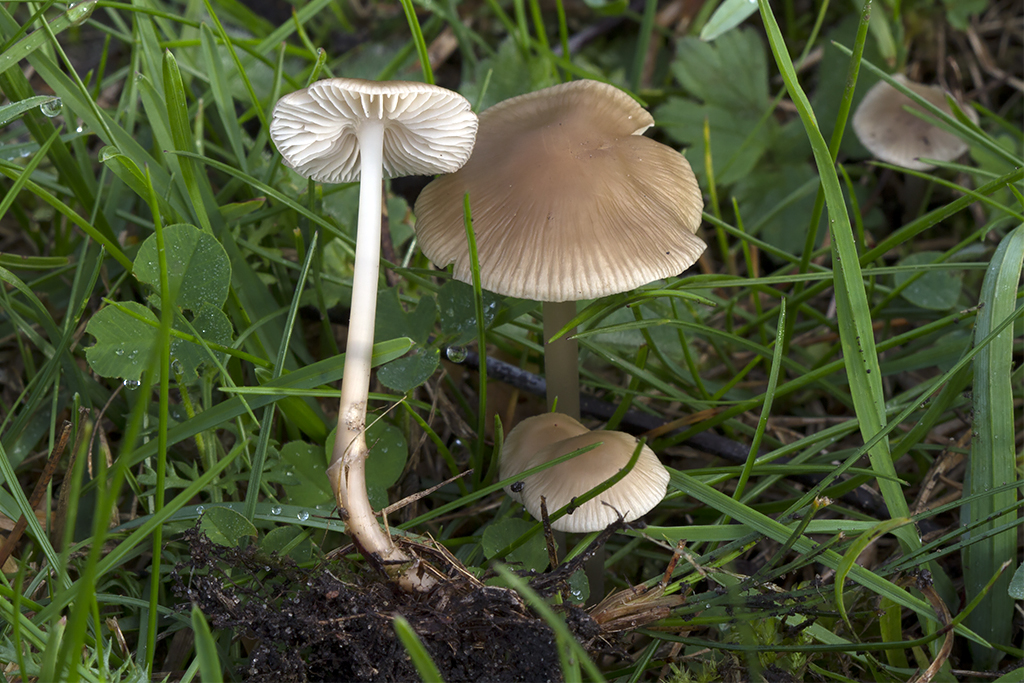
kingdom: Fungi
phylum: Basidiomycota
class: Agaricomycetes
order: Agaricales
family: Mycenaceae
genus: Mycena
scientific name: Mycena galericulata
